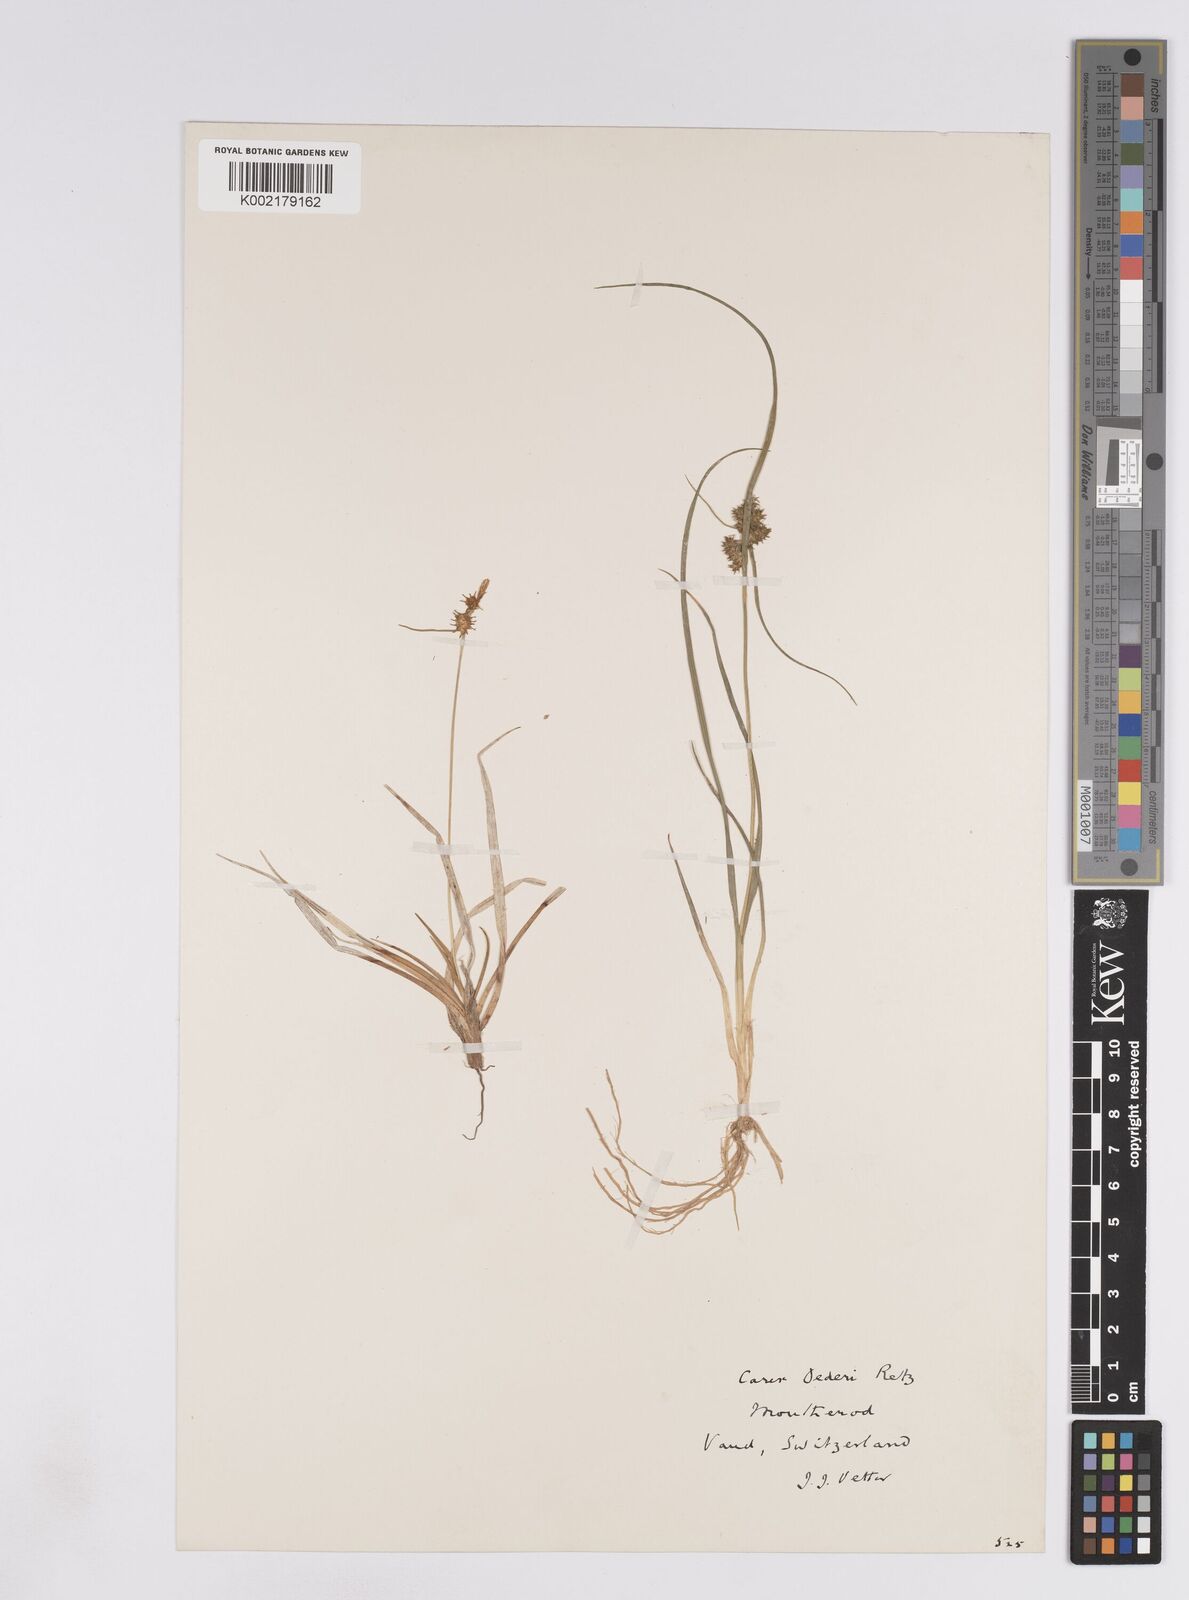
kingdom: Plantae
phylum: Tracheophyta
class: Liliopsida
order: Poales
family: Cyperaceae
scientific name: Cyperaceae
